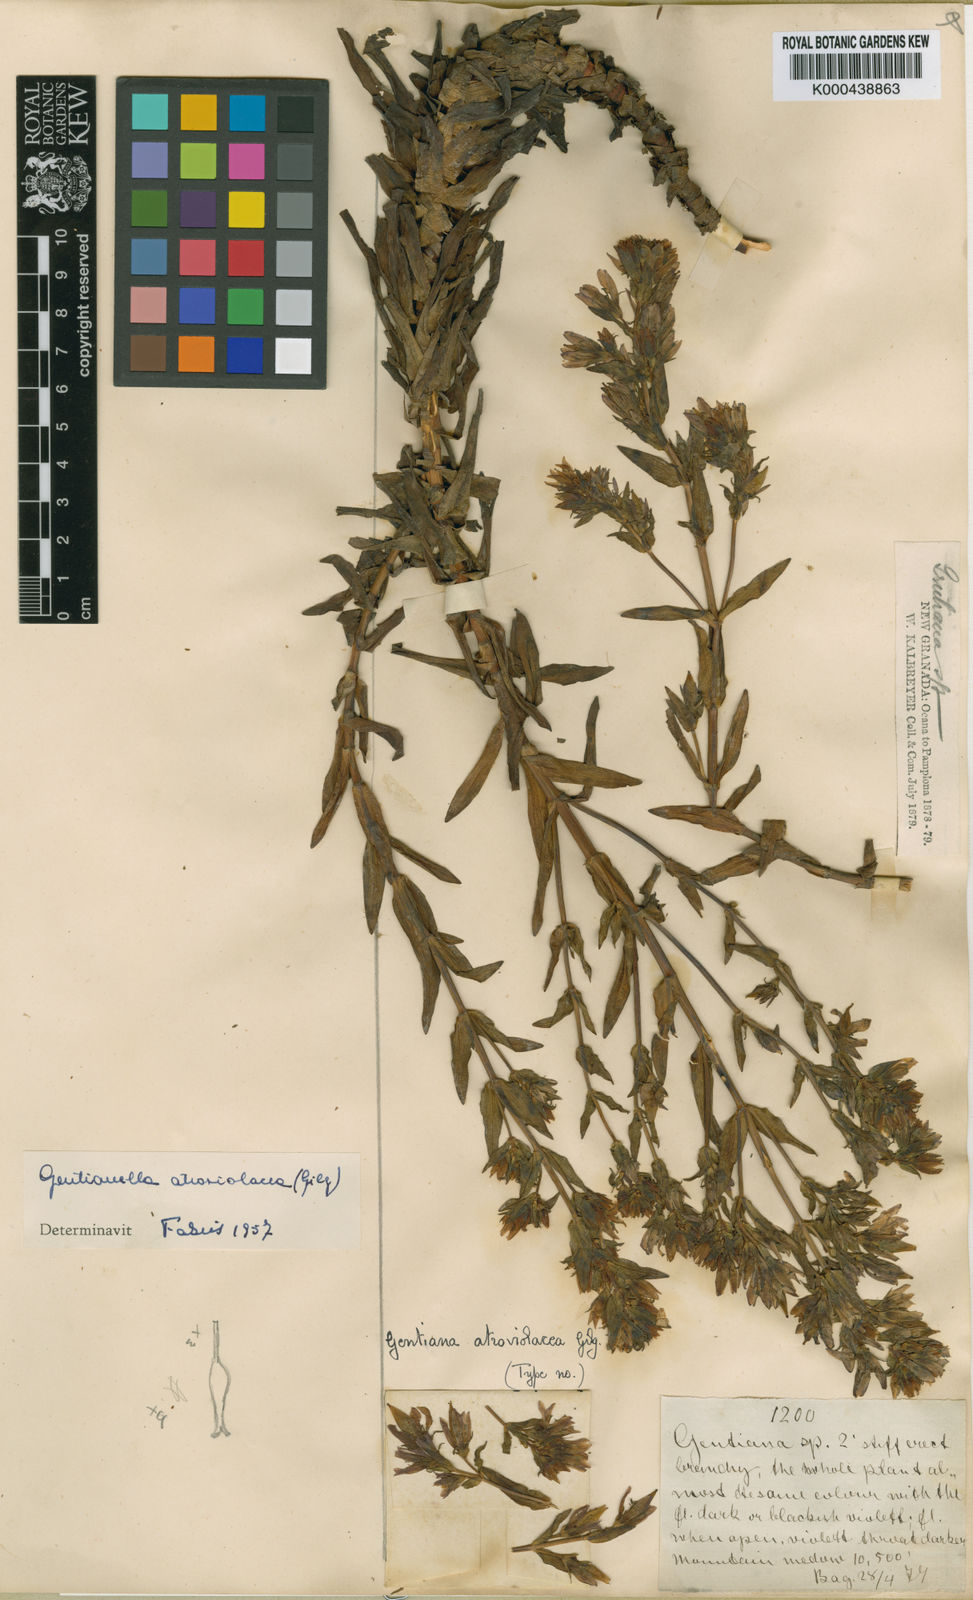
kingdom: Plantae
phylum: Tracheophyta
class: Magnoliopsida
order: Gentianales
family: Gentianaceae
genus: Gentianella
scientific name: Gentianella atroviolacea
